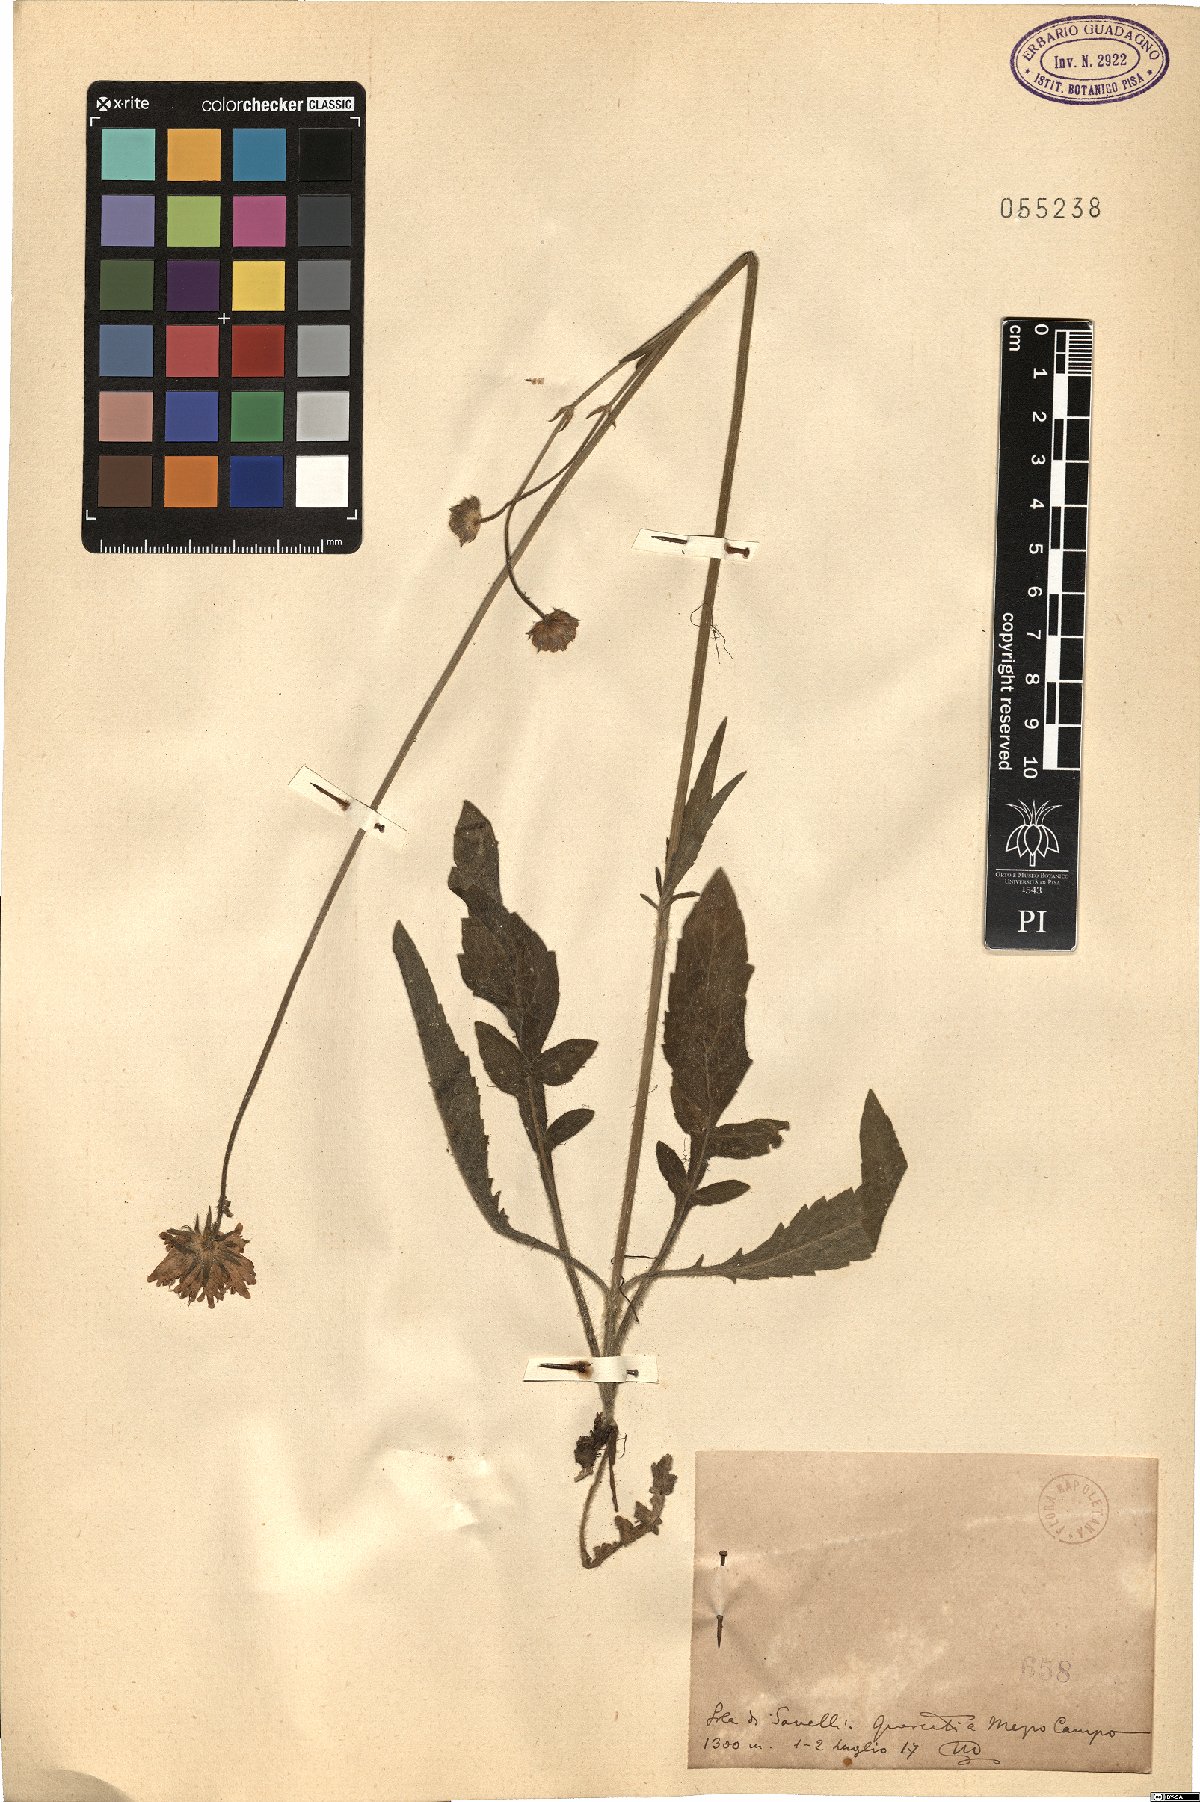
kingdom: Plantae
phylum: Tracheophyta
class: Magnoliopsida
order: Dipsacales
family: Caprifoliaceae
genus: Knautia
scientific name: Knautia
